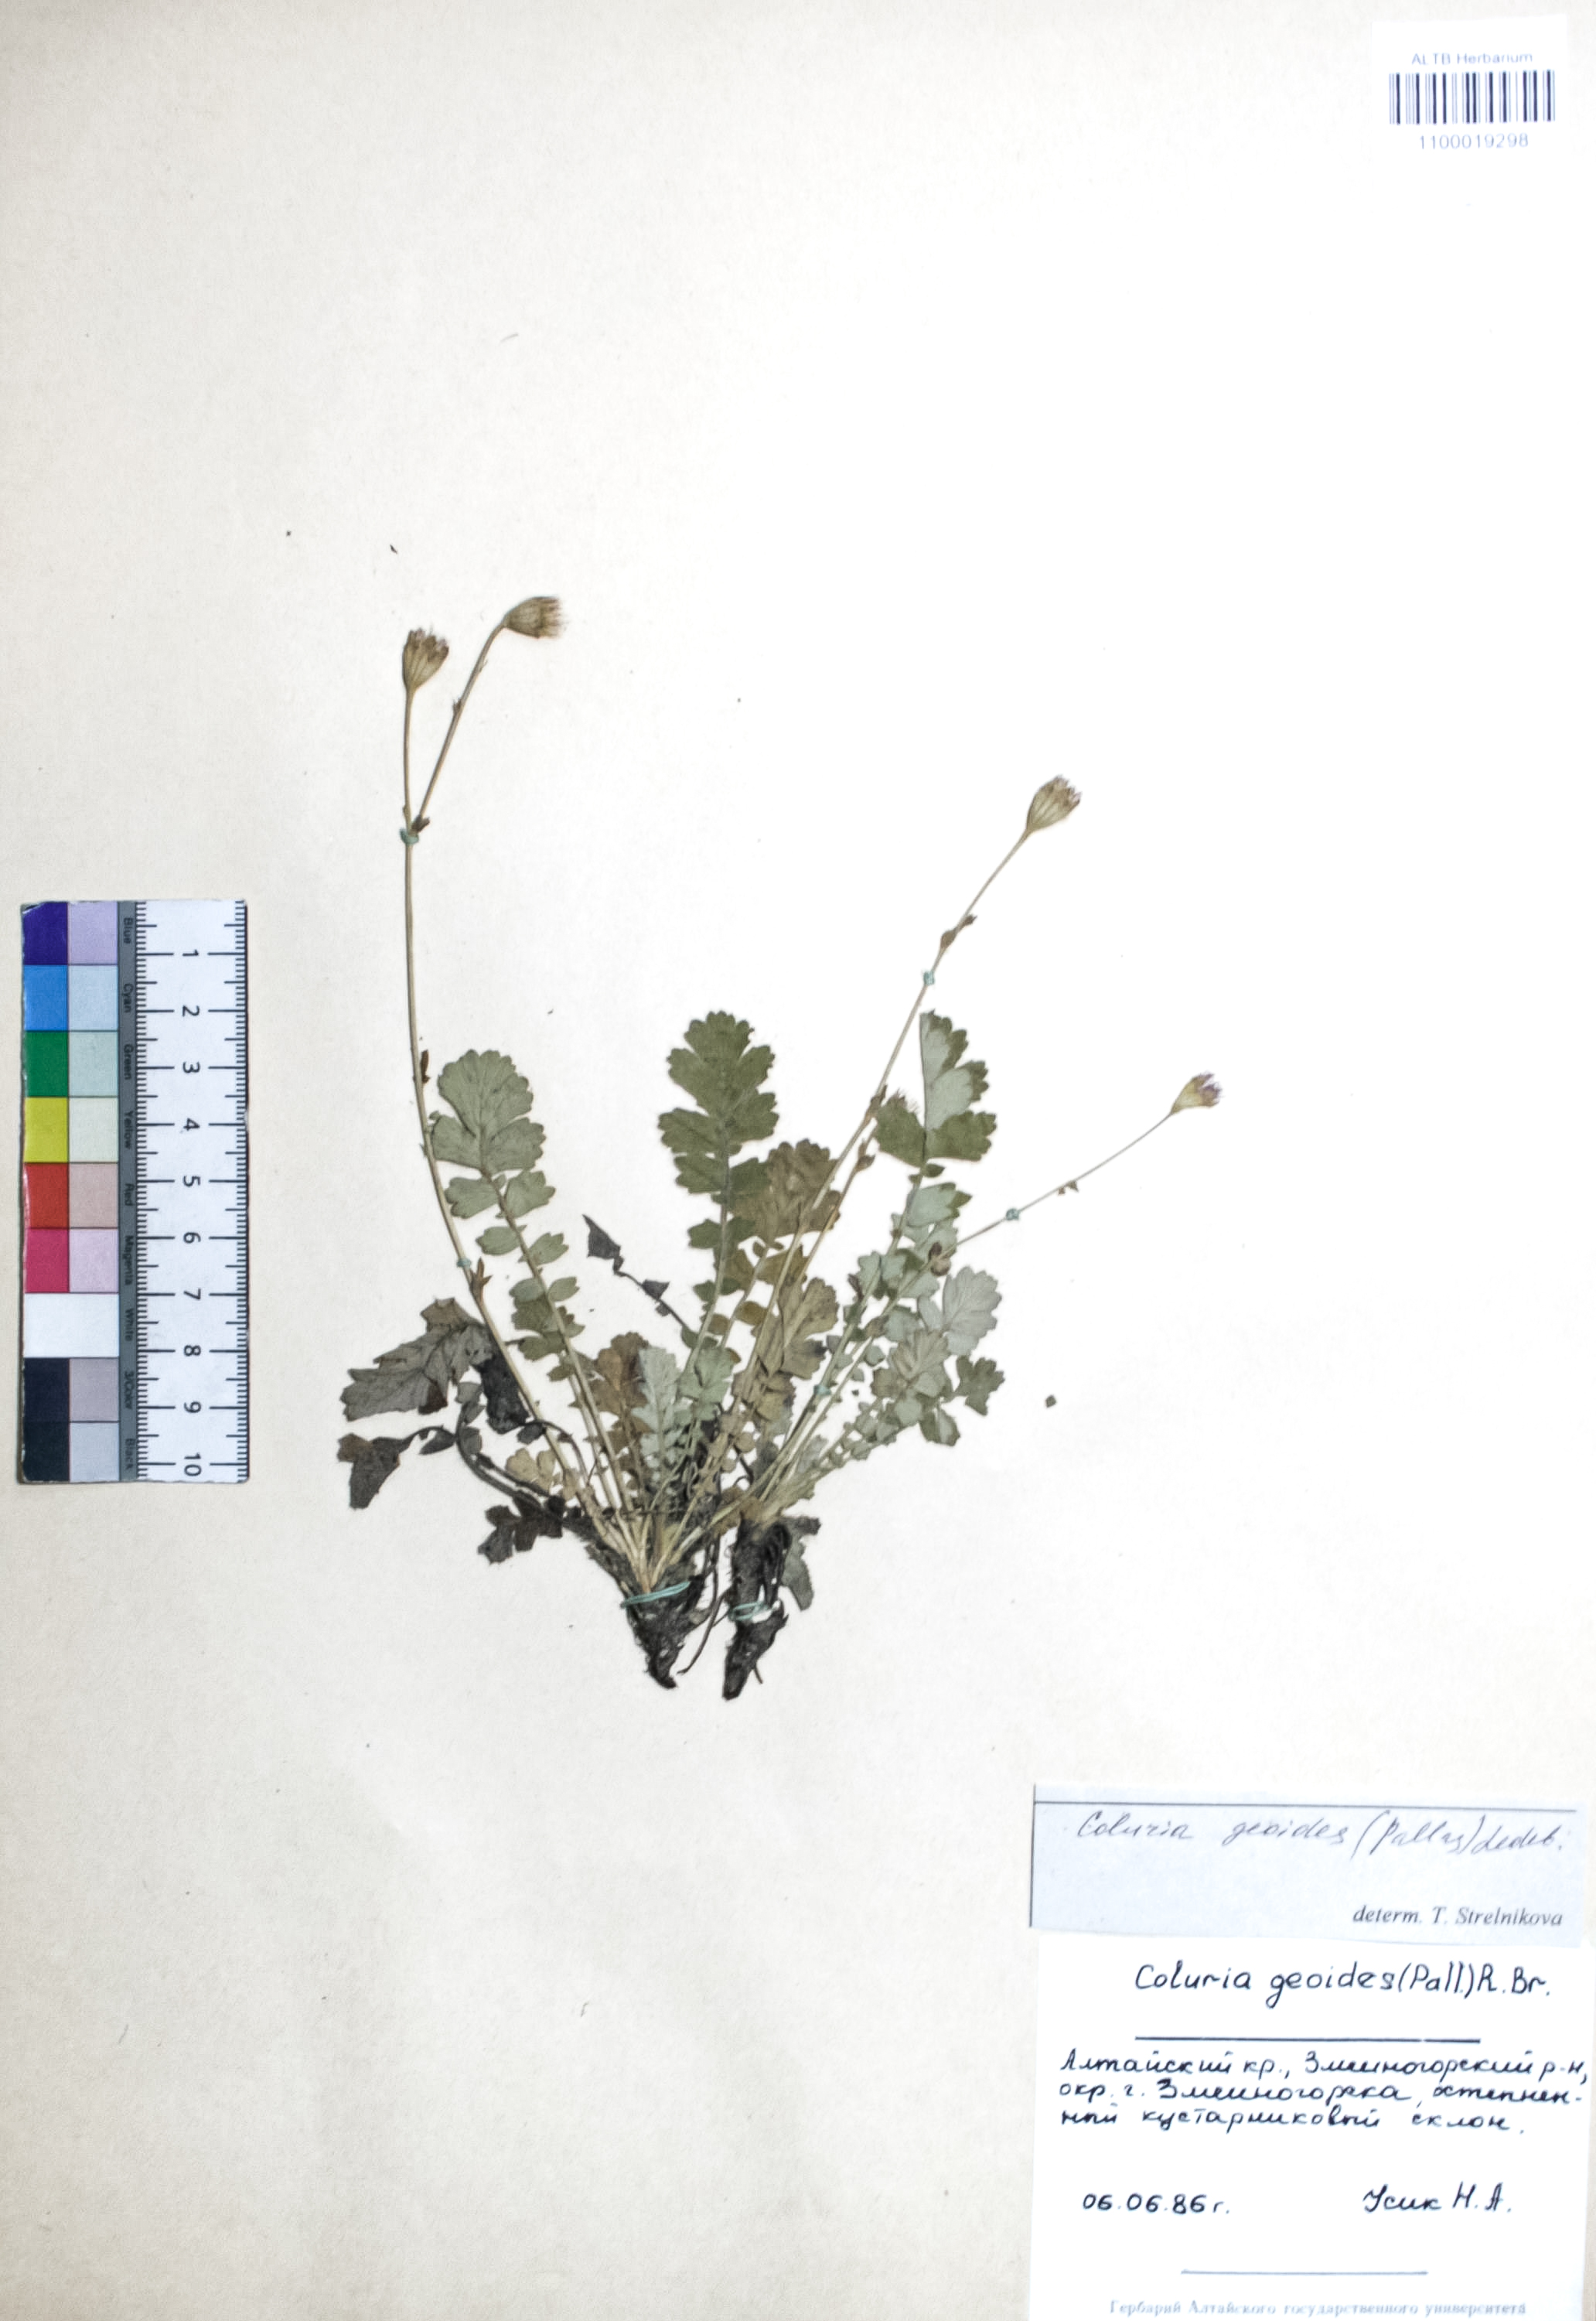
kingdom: Plantae
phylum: Tracheophyta
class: Magnoliopsida
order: Rosales
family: Rosaceae
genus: Geum
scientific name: Geum geoides
